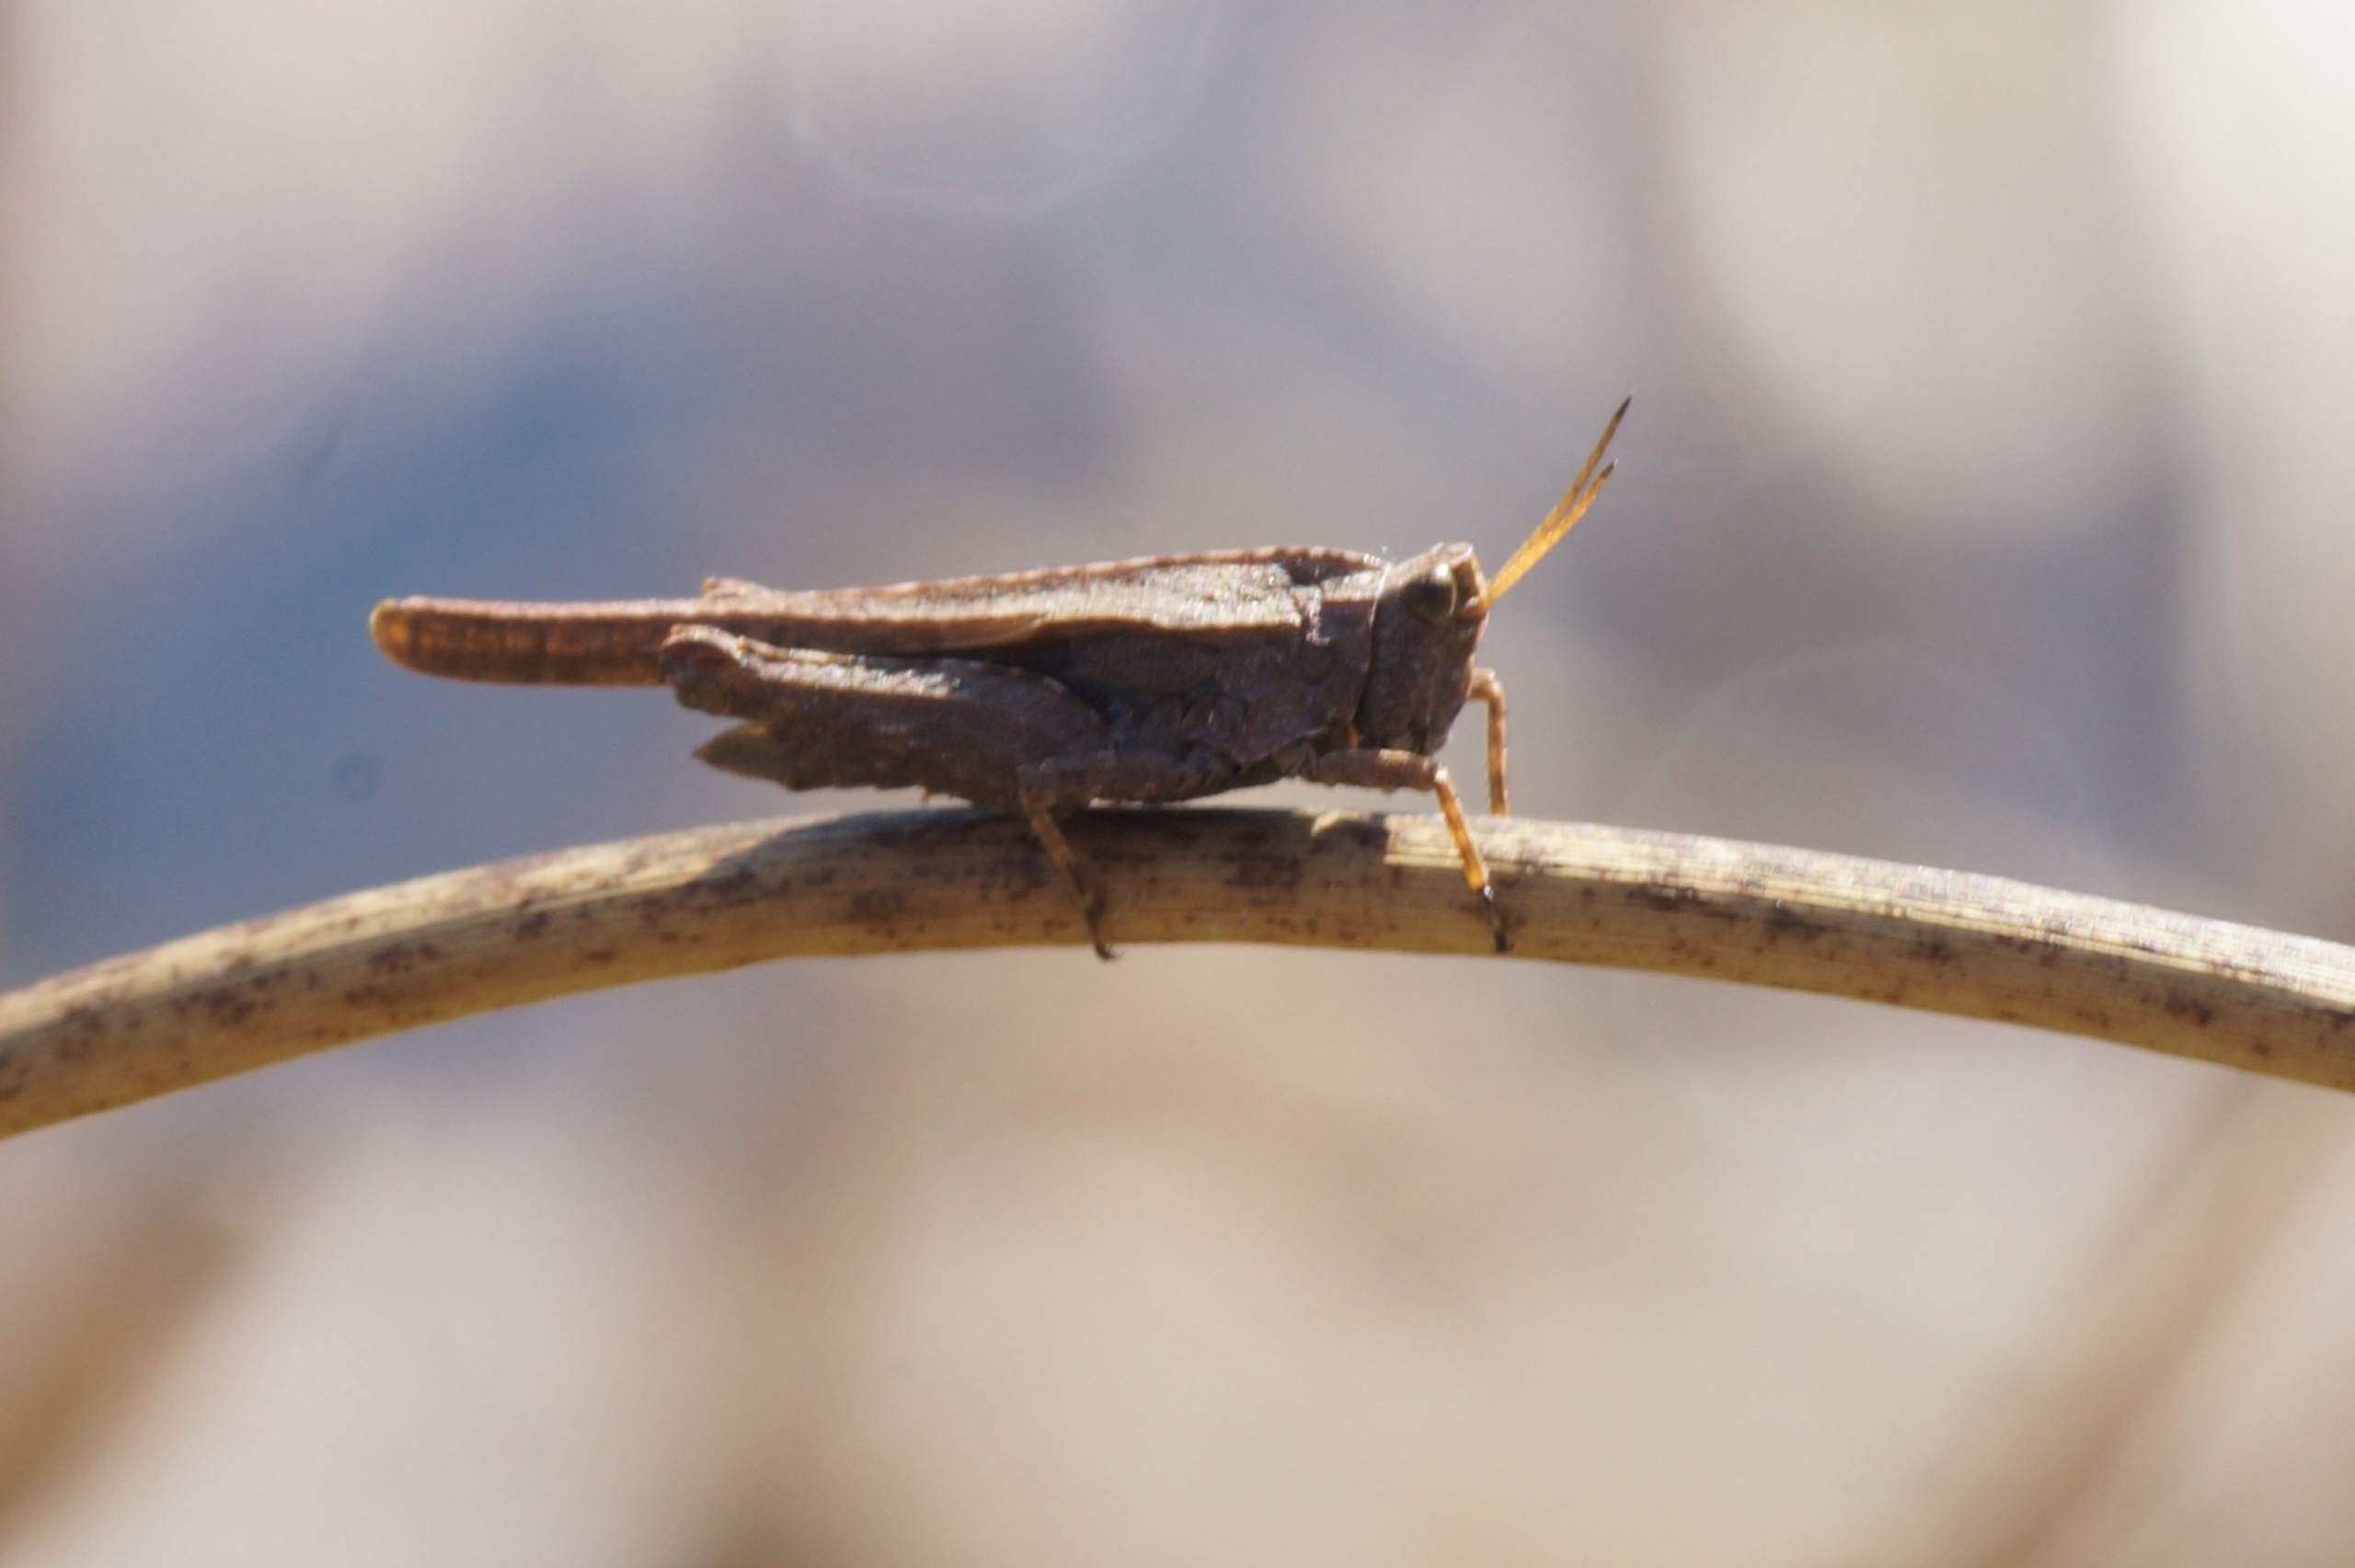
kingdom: Animalia
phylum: Arthropoda
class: Insecta
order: Orthoptera
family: Tetrigidae
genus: Tetrix
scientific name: Tetrix subulata
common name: Sump-torngræshoppe
